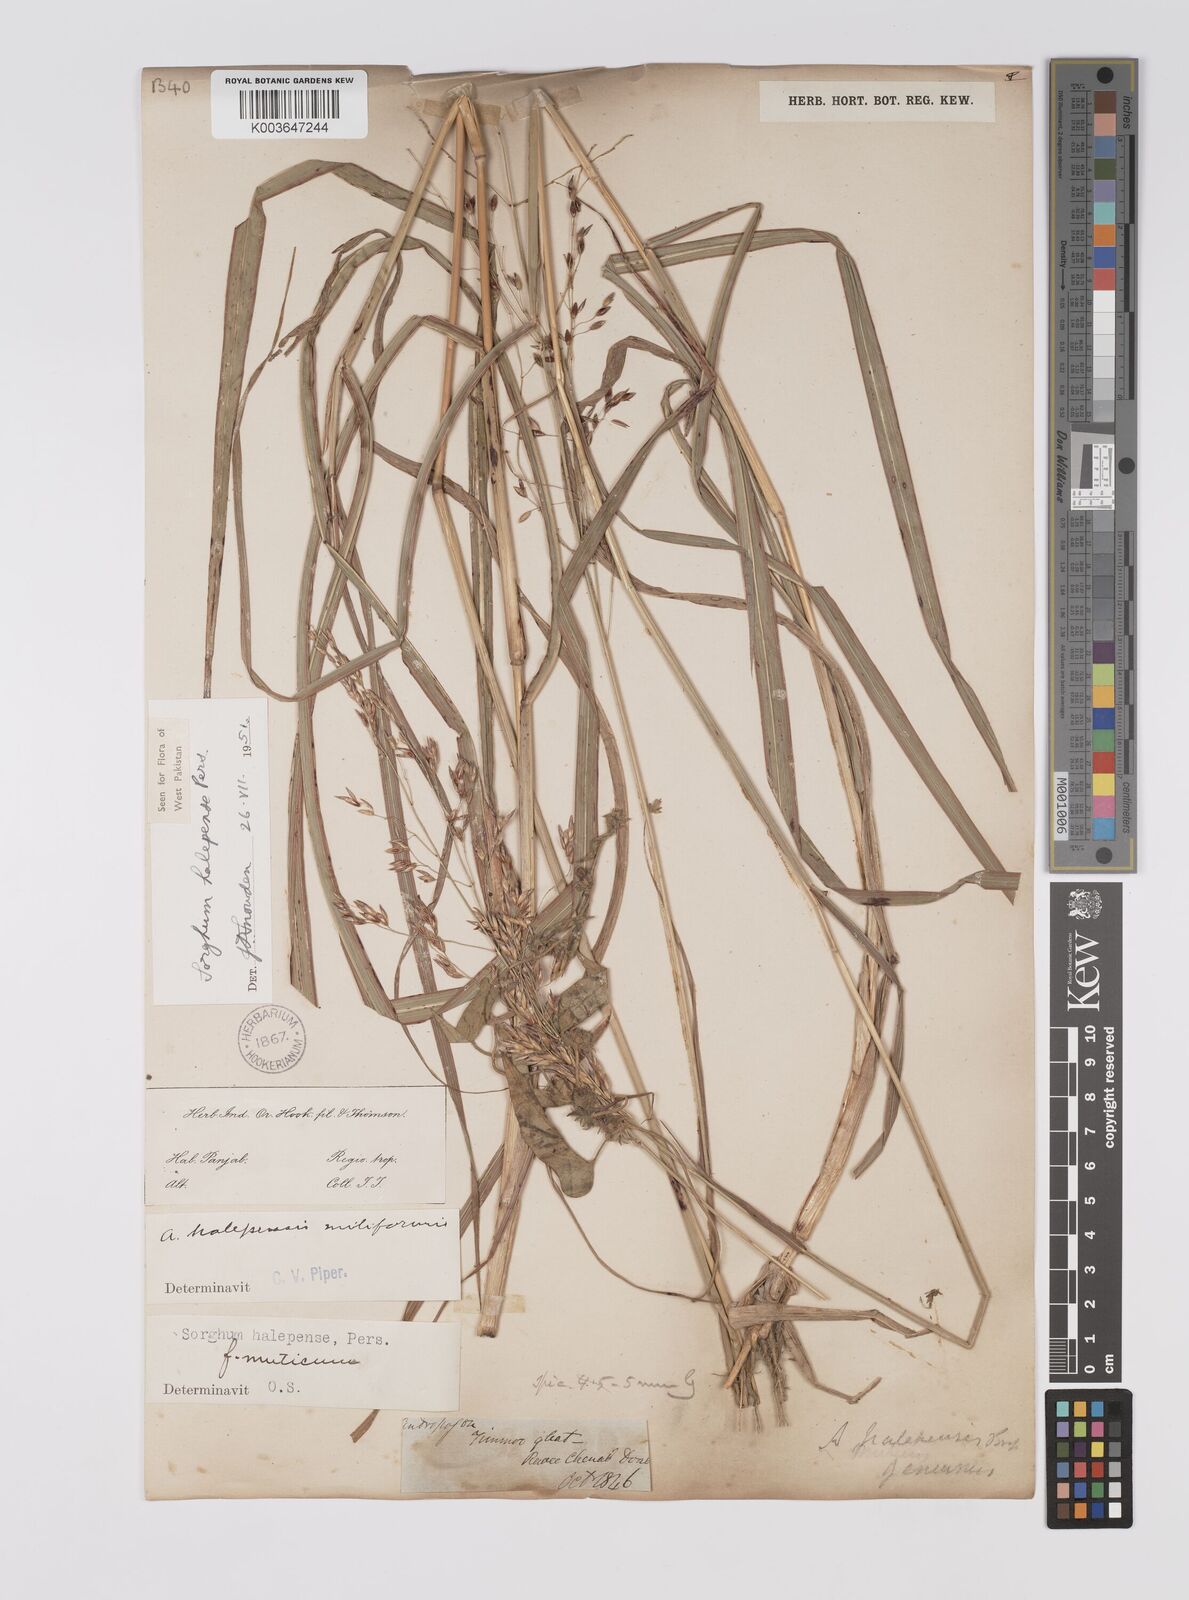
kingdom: Plantae
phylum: Tracheophyta
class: Liliopsida
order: Poales
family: Poaceae
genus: Sorghum
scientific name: Sorghum halepense
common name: Johnson-grass
